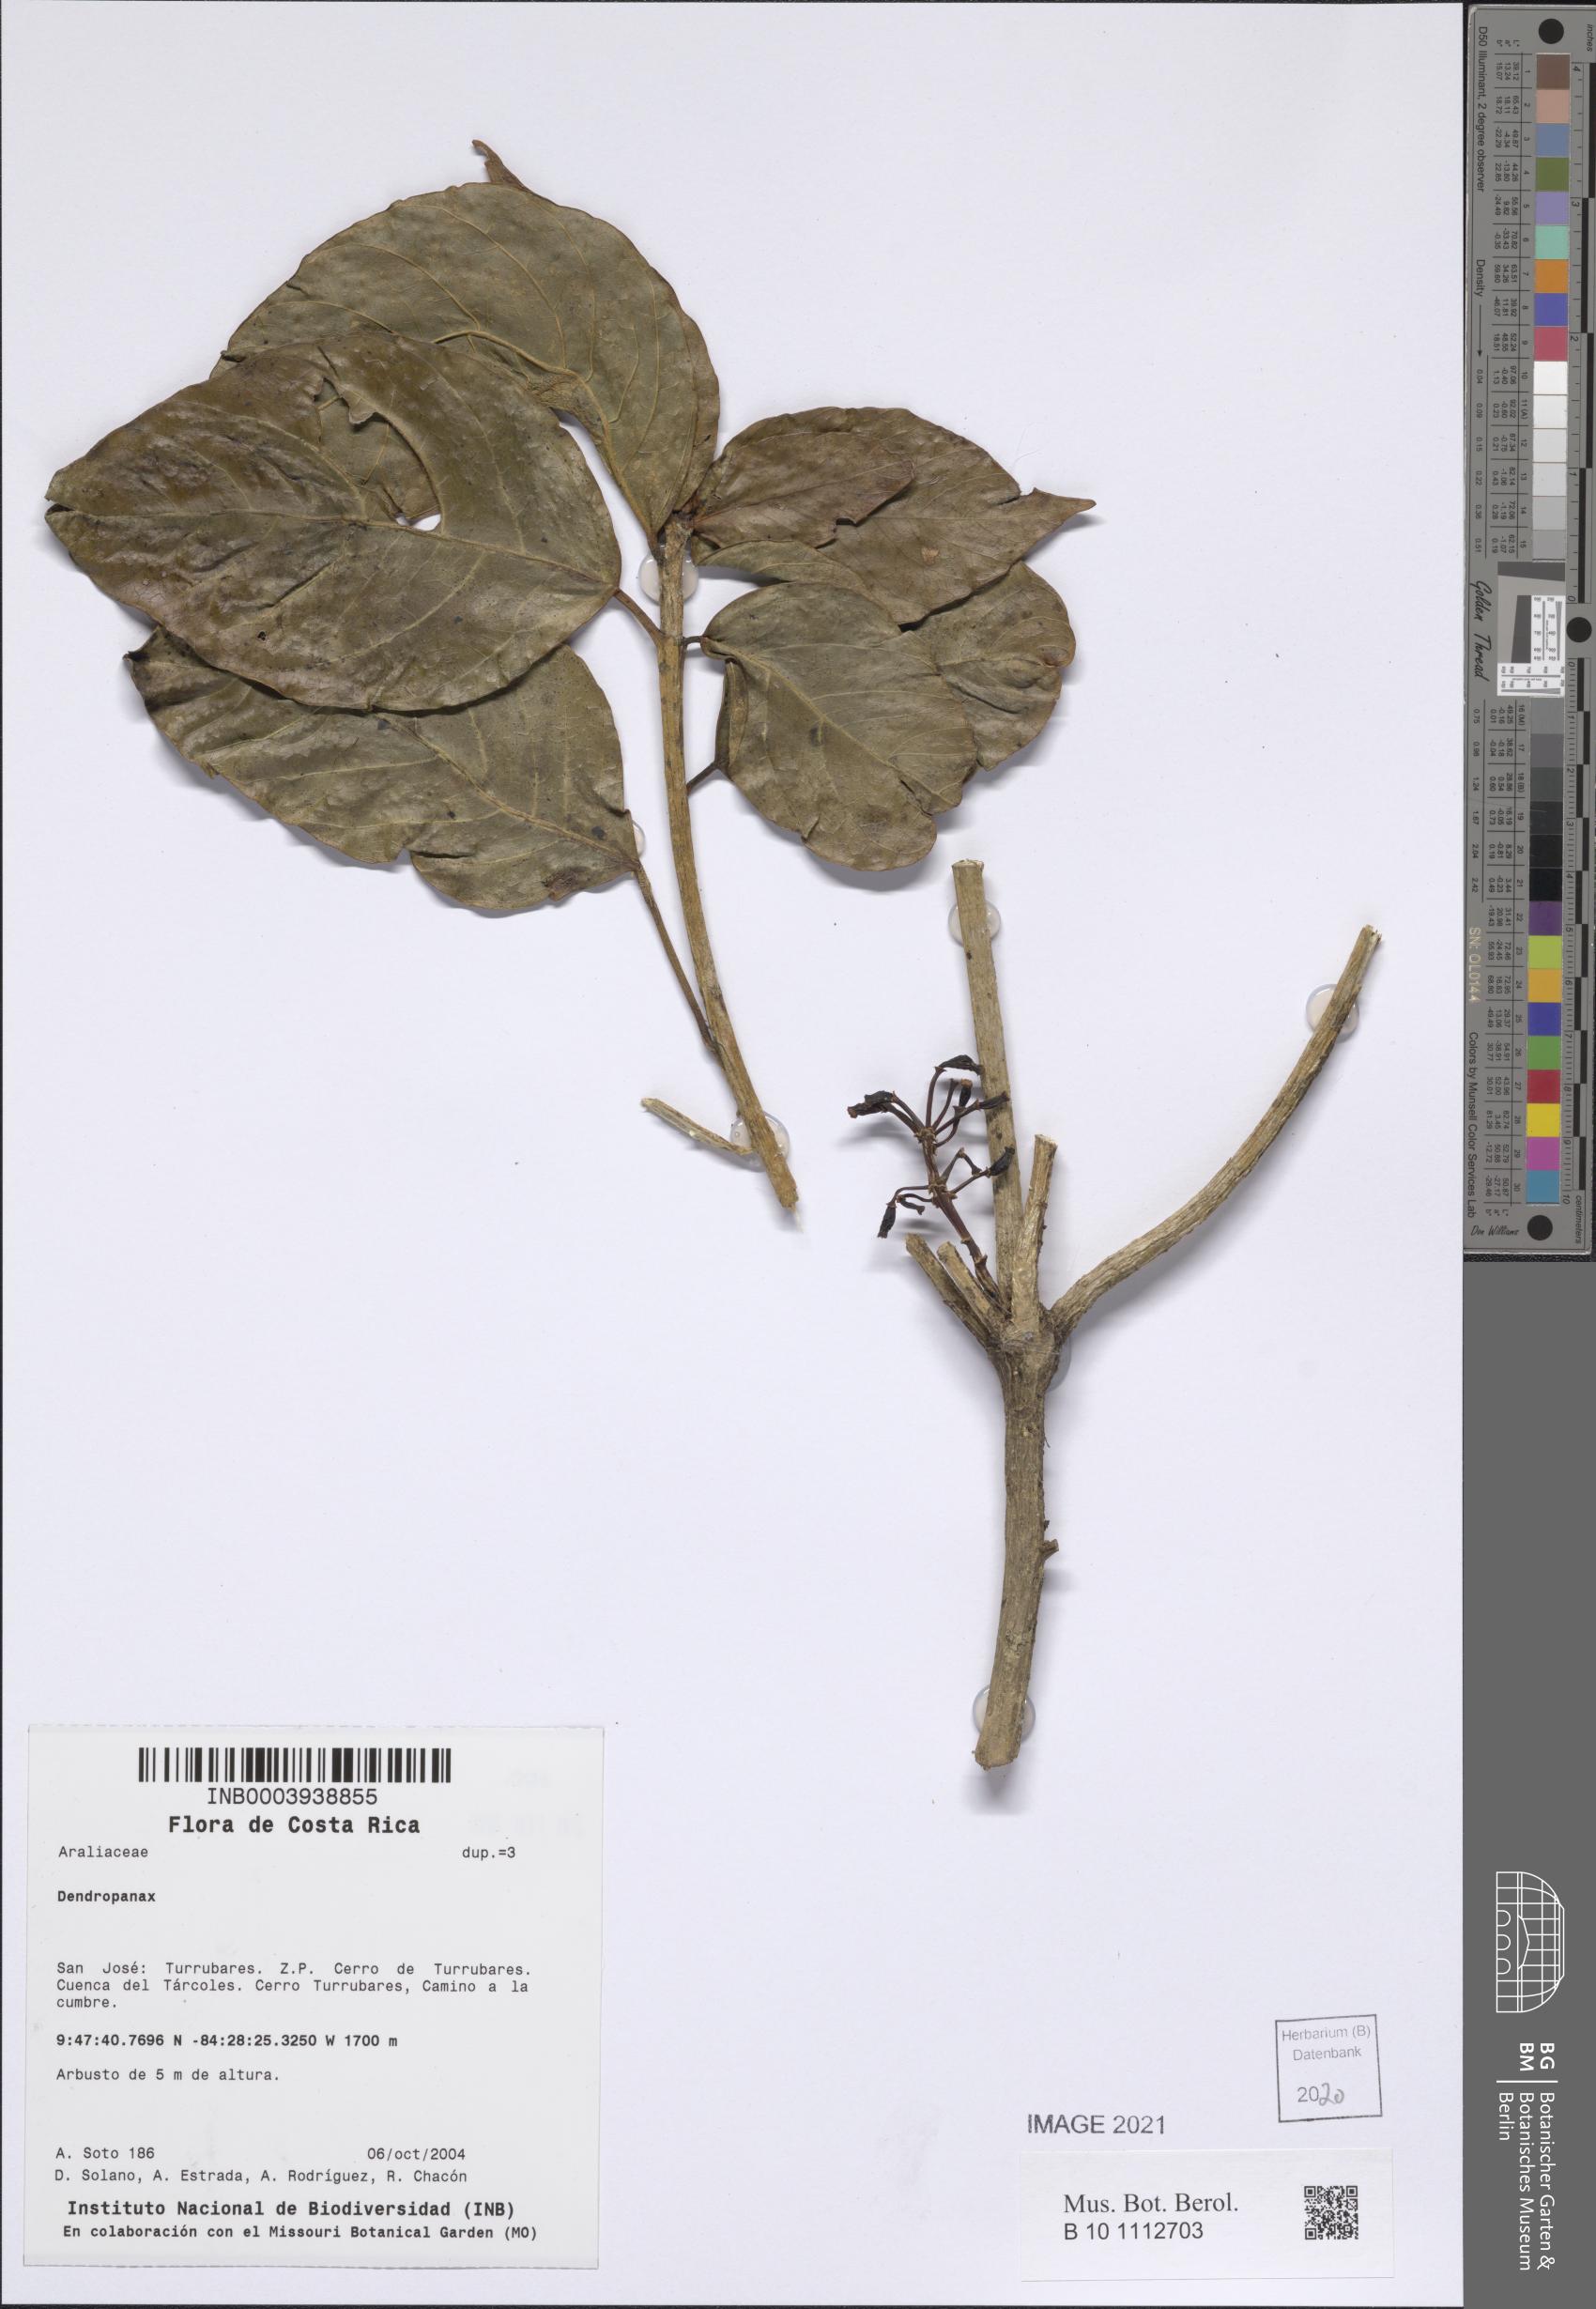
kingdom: Plantae
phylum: Tracheophyta
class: Magnoliopsida
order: Apiales
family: Araliaceae
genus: Dendropanax
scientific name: Dendropanax
